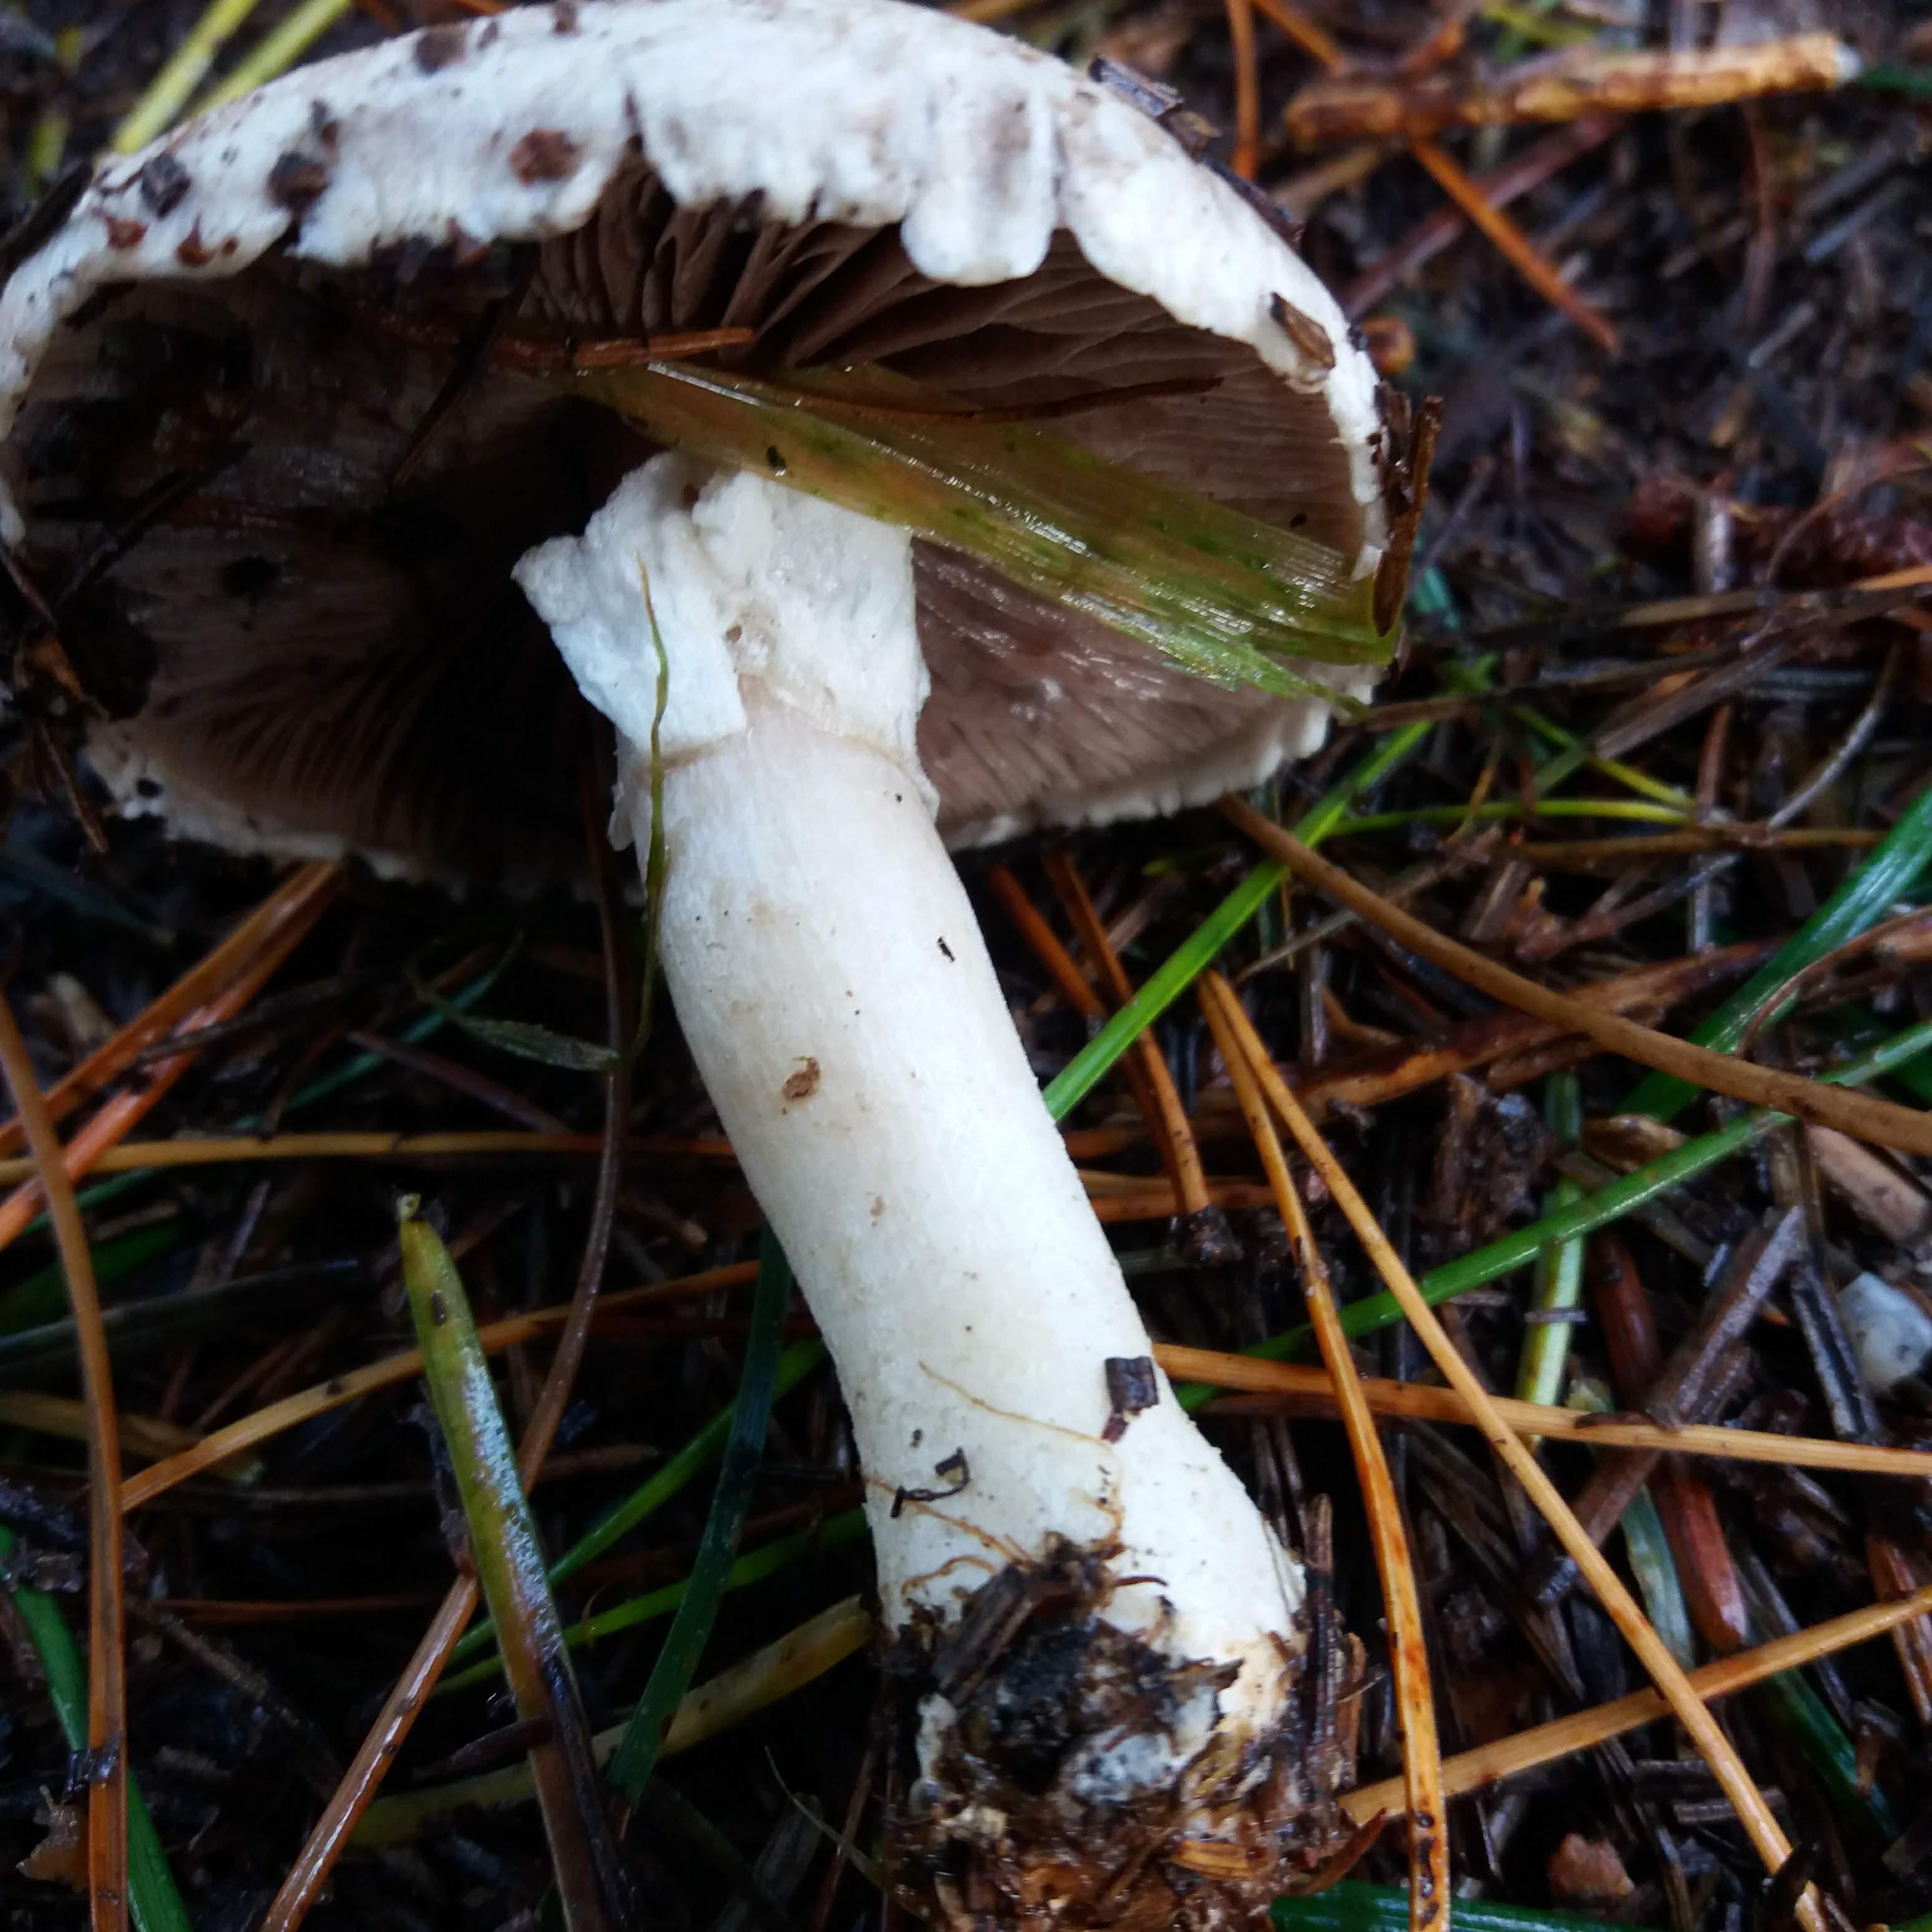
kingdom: Fungi
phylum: Basidiomycota
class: Agaricomycetes
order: Agaricales
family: Agaricaceae
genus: Agaricus
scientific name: Agaricus
